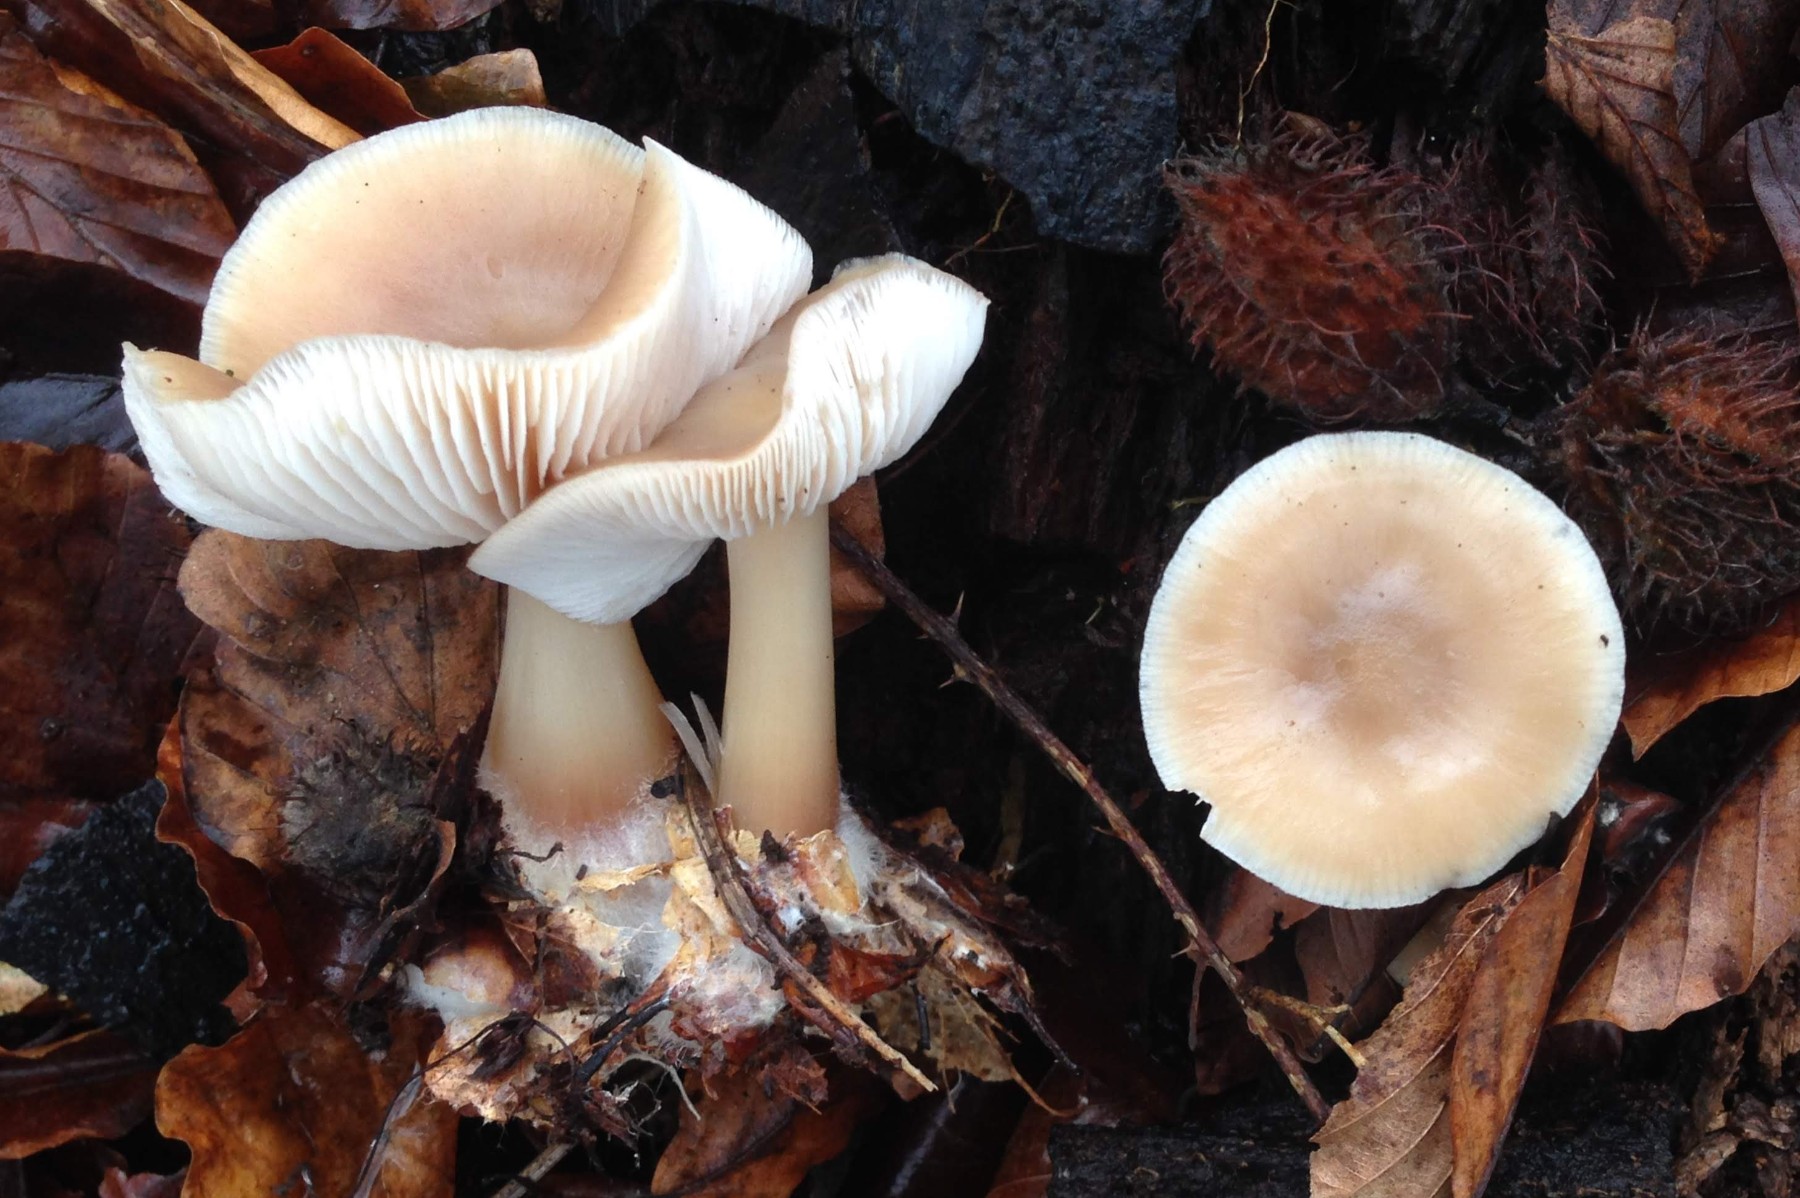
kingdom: Fungi
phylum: Basidiomycota
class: Agaricomycetes
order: Agaricales
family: Omphalotaceae
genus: Rhodocollybia
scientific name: Rhodocollybia asema
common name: horngrå fladhat
